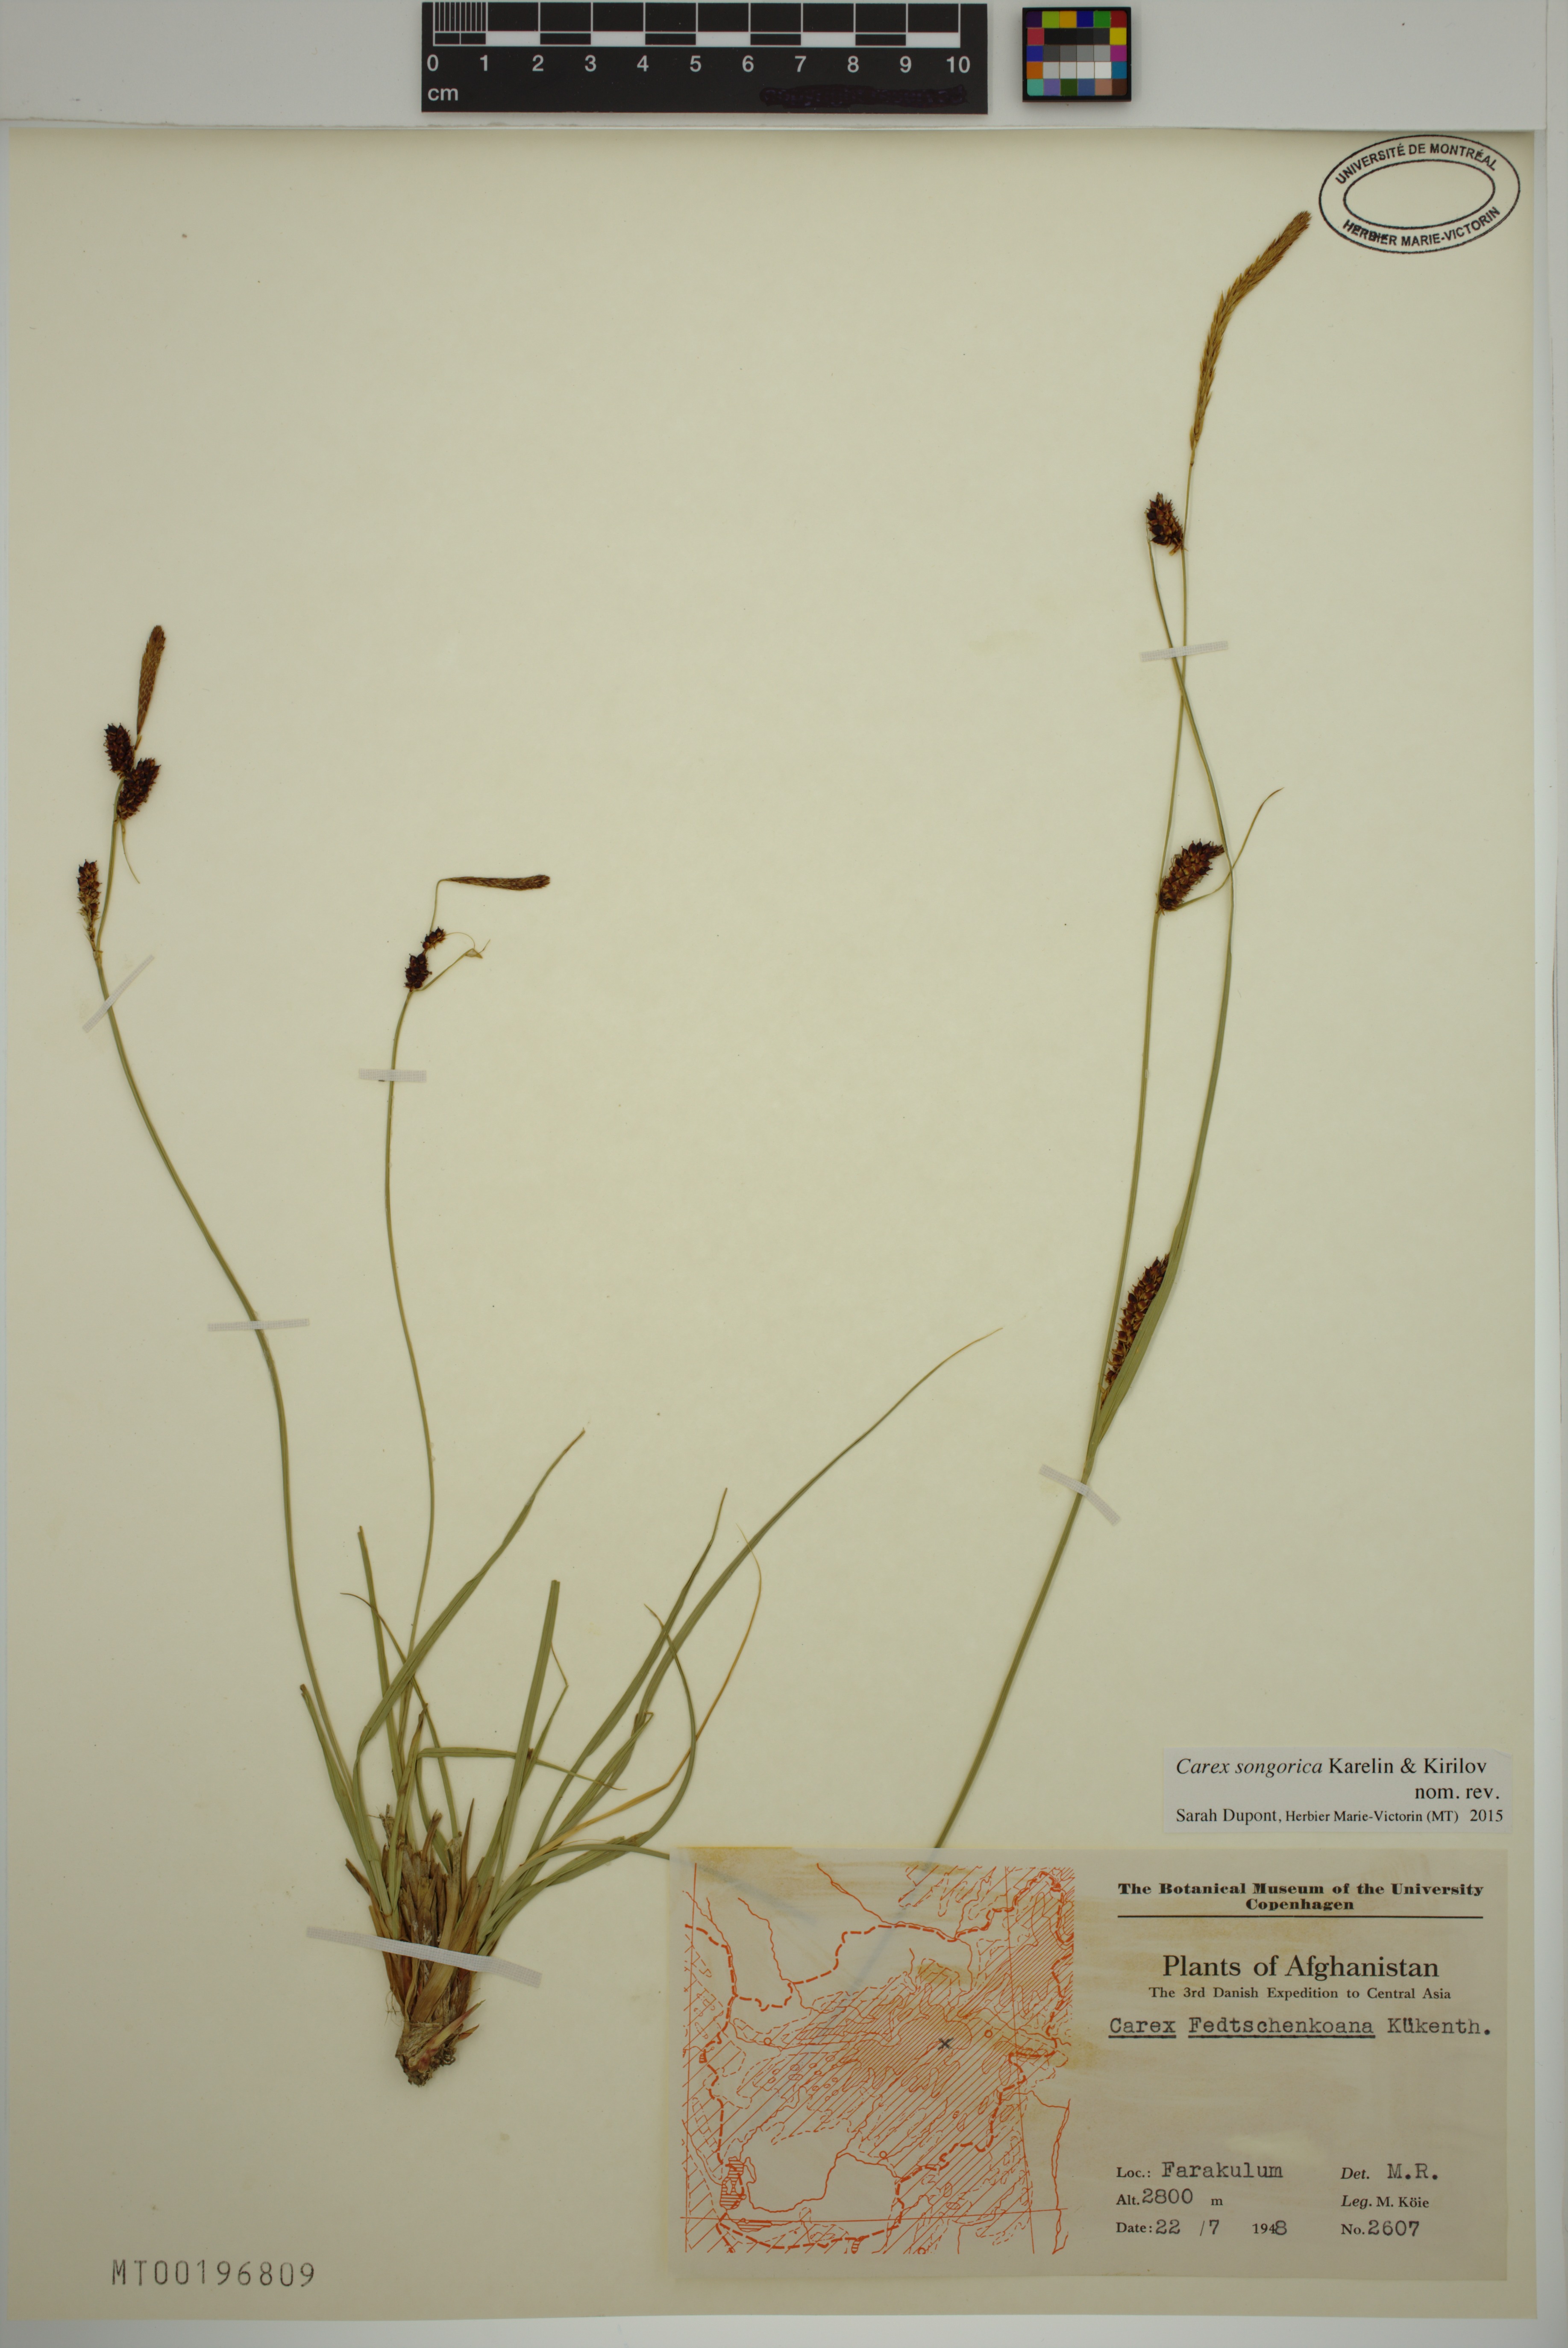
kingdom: Plantae
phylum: Tracheophyta
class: Liliopsida
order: Poales
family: Cyperaceae
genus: Carex
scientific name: Carex songorica
